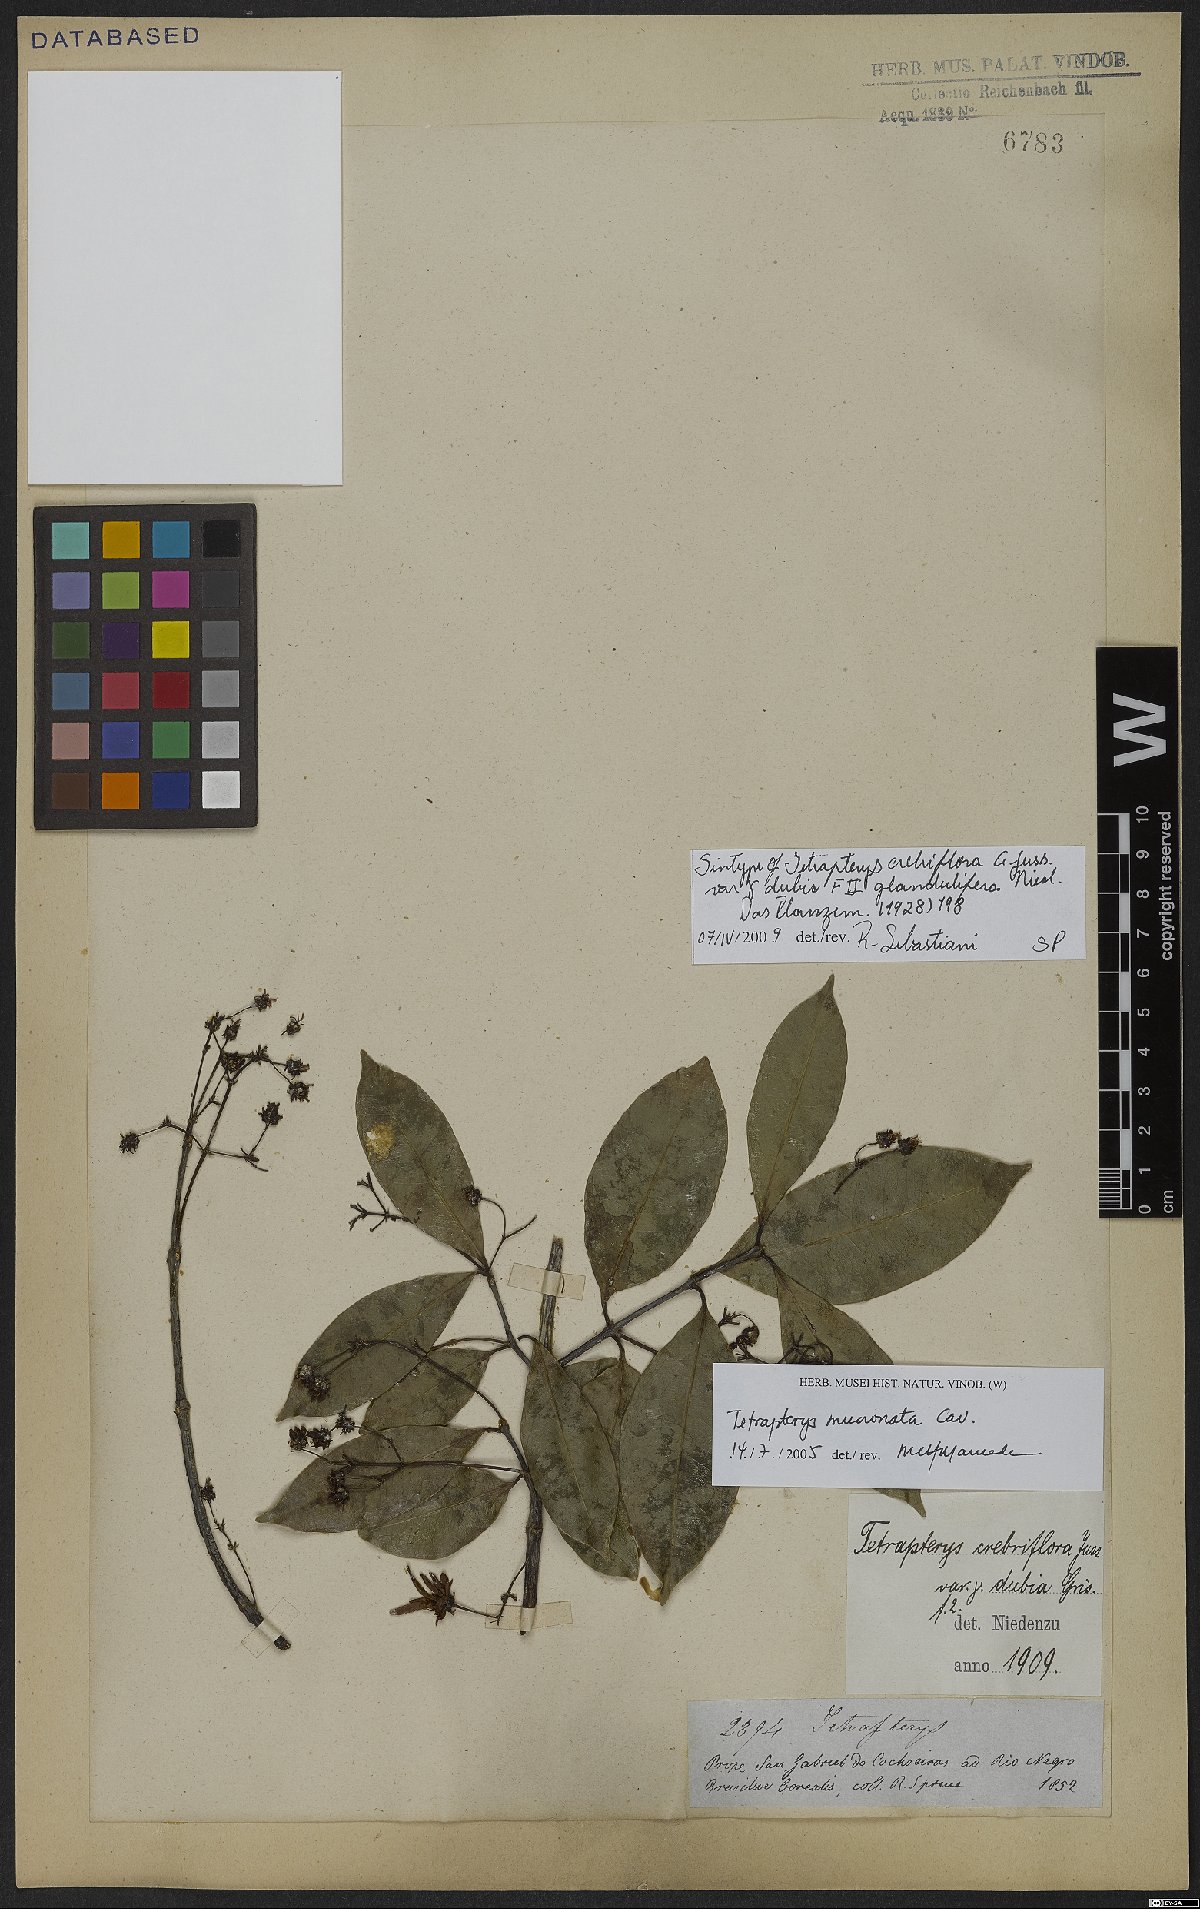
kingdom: Plantae
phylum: Tracheophyta
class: Magnoliopsida
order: Malpighiales
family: Malpighiaceae
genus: Tetrapterys
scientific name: Tetrapterys mucronata
